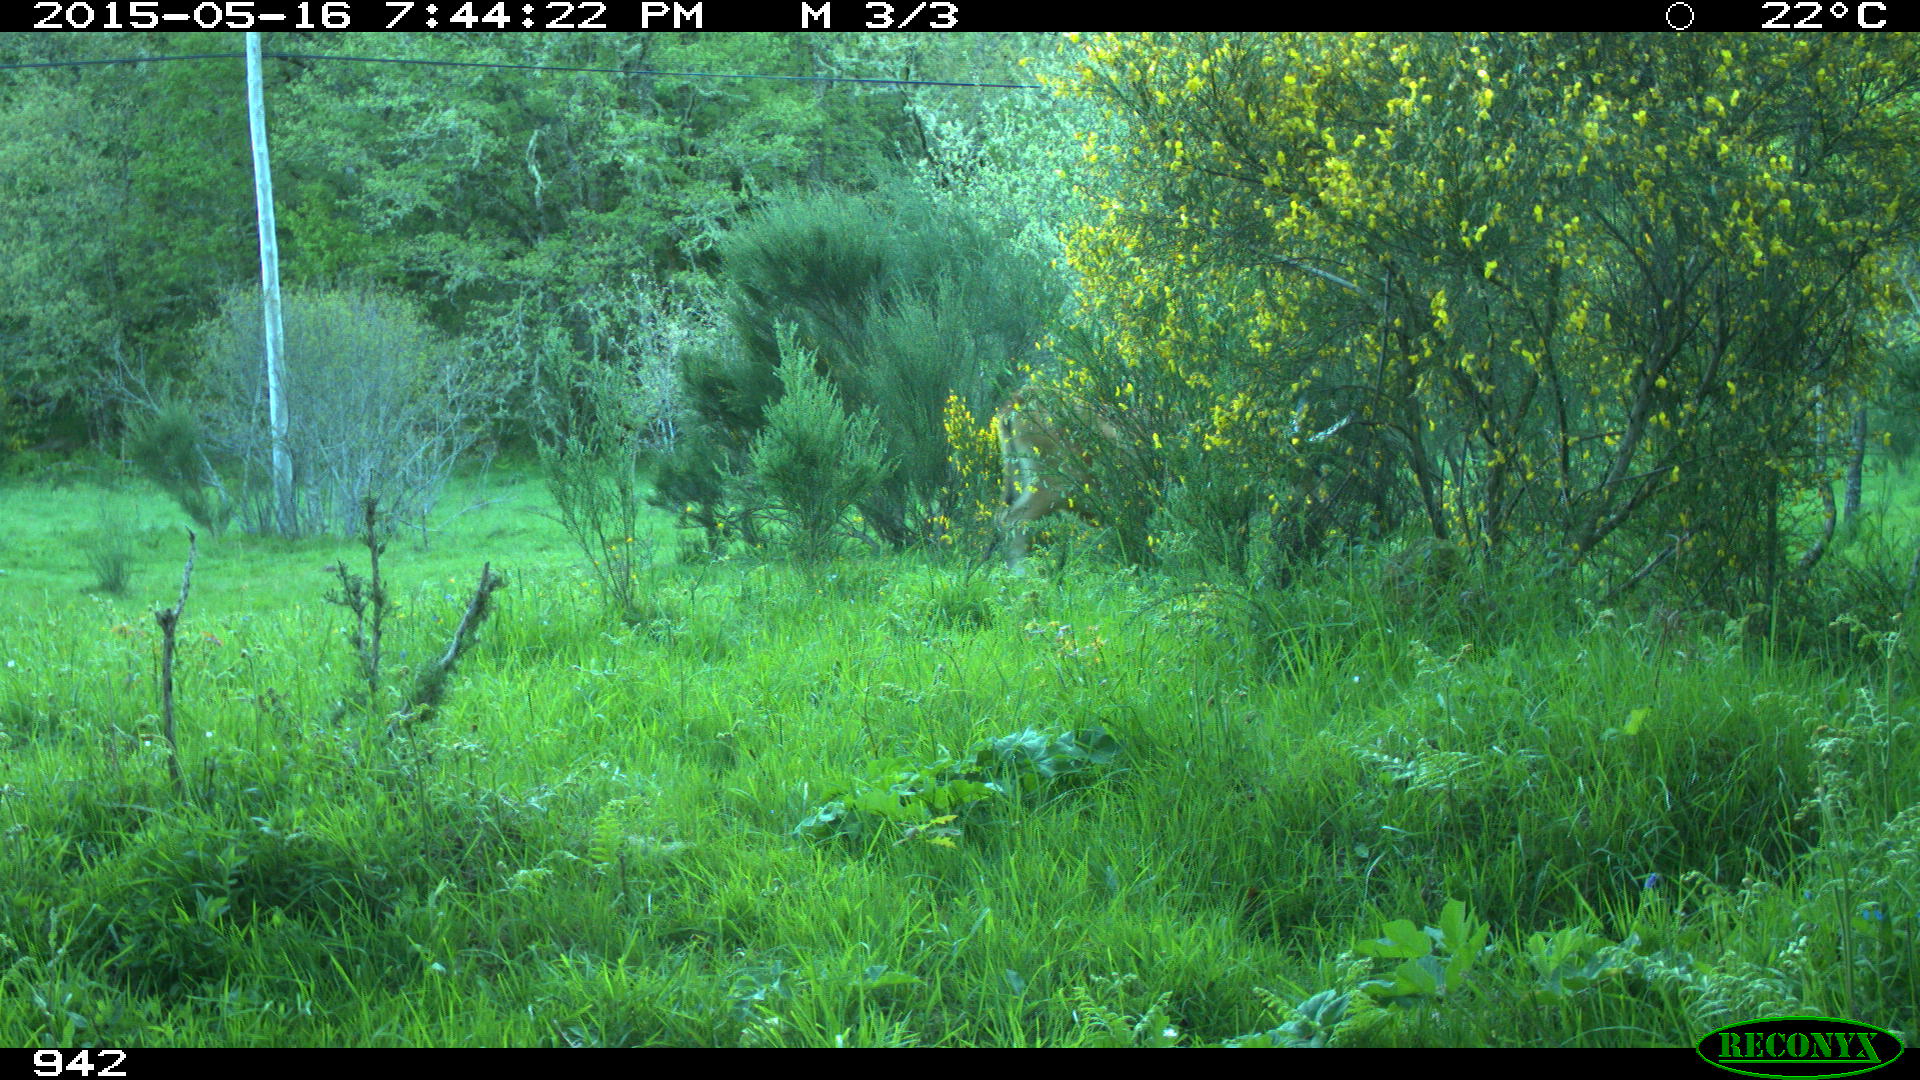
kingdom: Animalia
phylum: Chordata
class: Mammalia
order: Artiodactyla
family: Bovidae
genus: Bos
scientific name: Bos taurus
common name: Domesticated cattle
